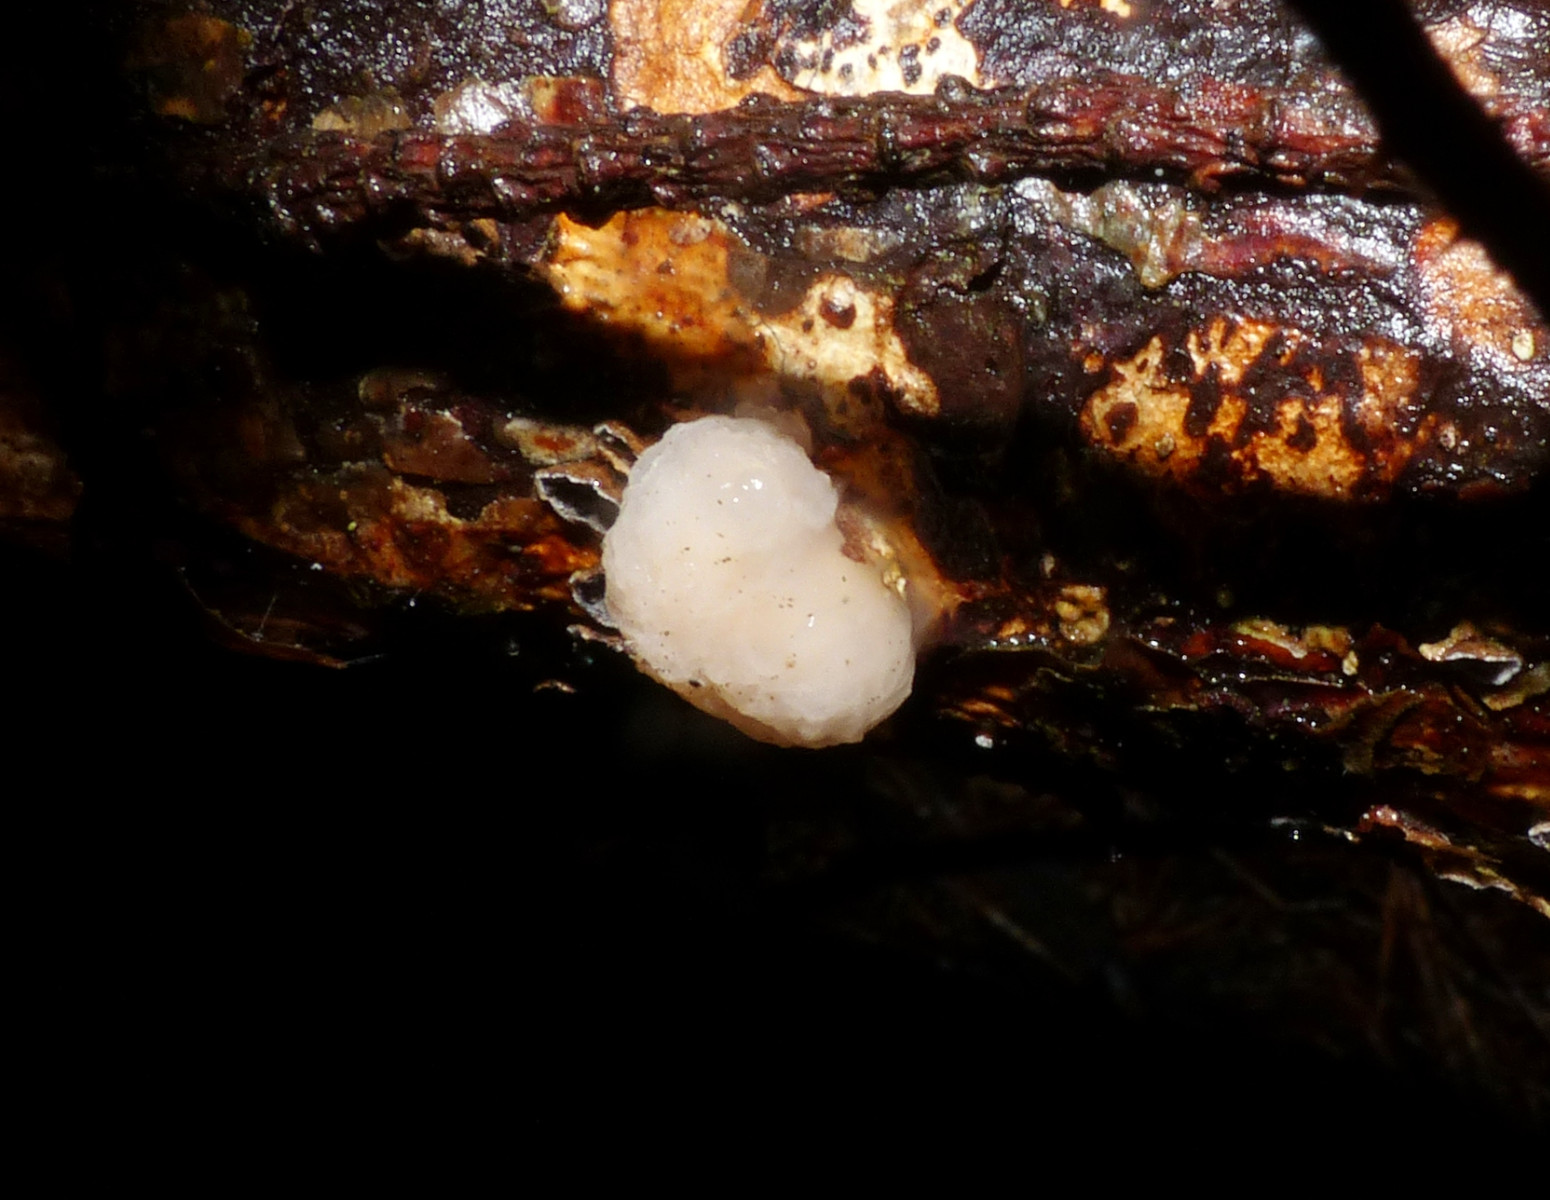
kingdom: Fungi
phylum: Basidiomycota
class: Tremellomycetes
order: Tremellales
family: Naemateliaceae
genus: Naematelia
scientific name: Naematelia encephala
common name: fyrre-bævresvamp
